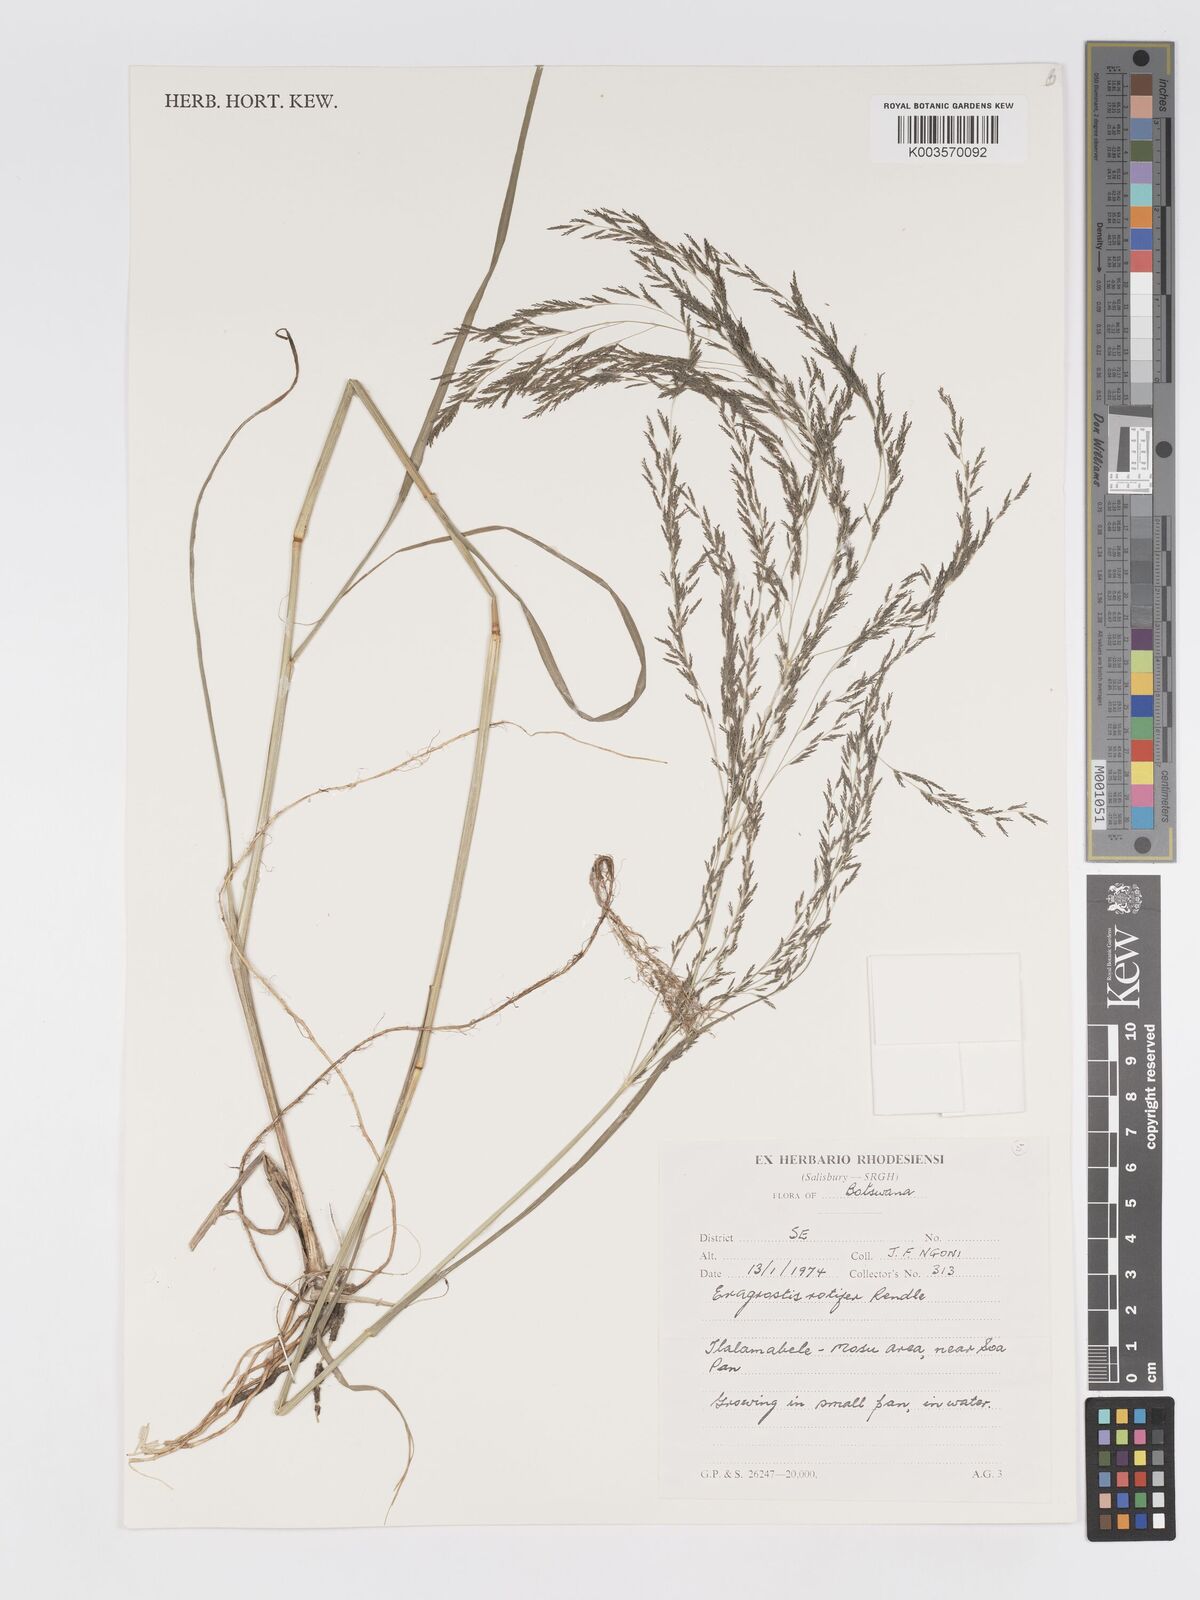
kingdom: Plantae
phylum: Tracheophyta
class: Liliopsida
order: Poales
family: Poaceae
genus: Eragrostis
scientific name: Eragrostis rotifer
